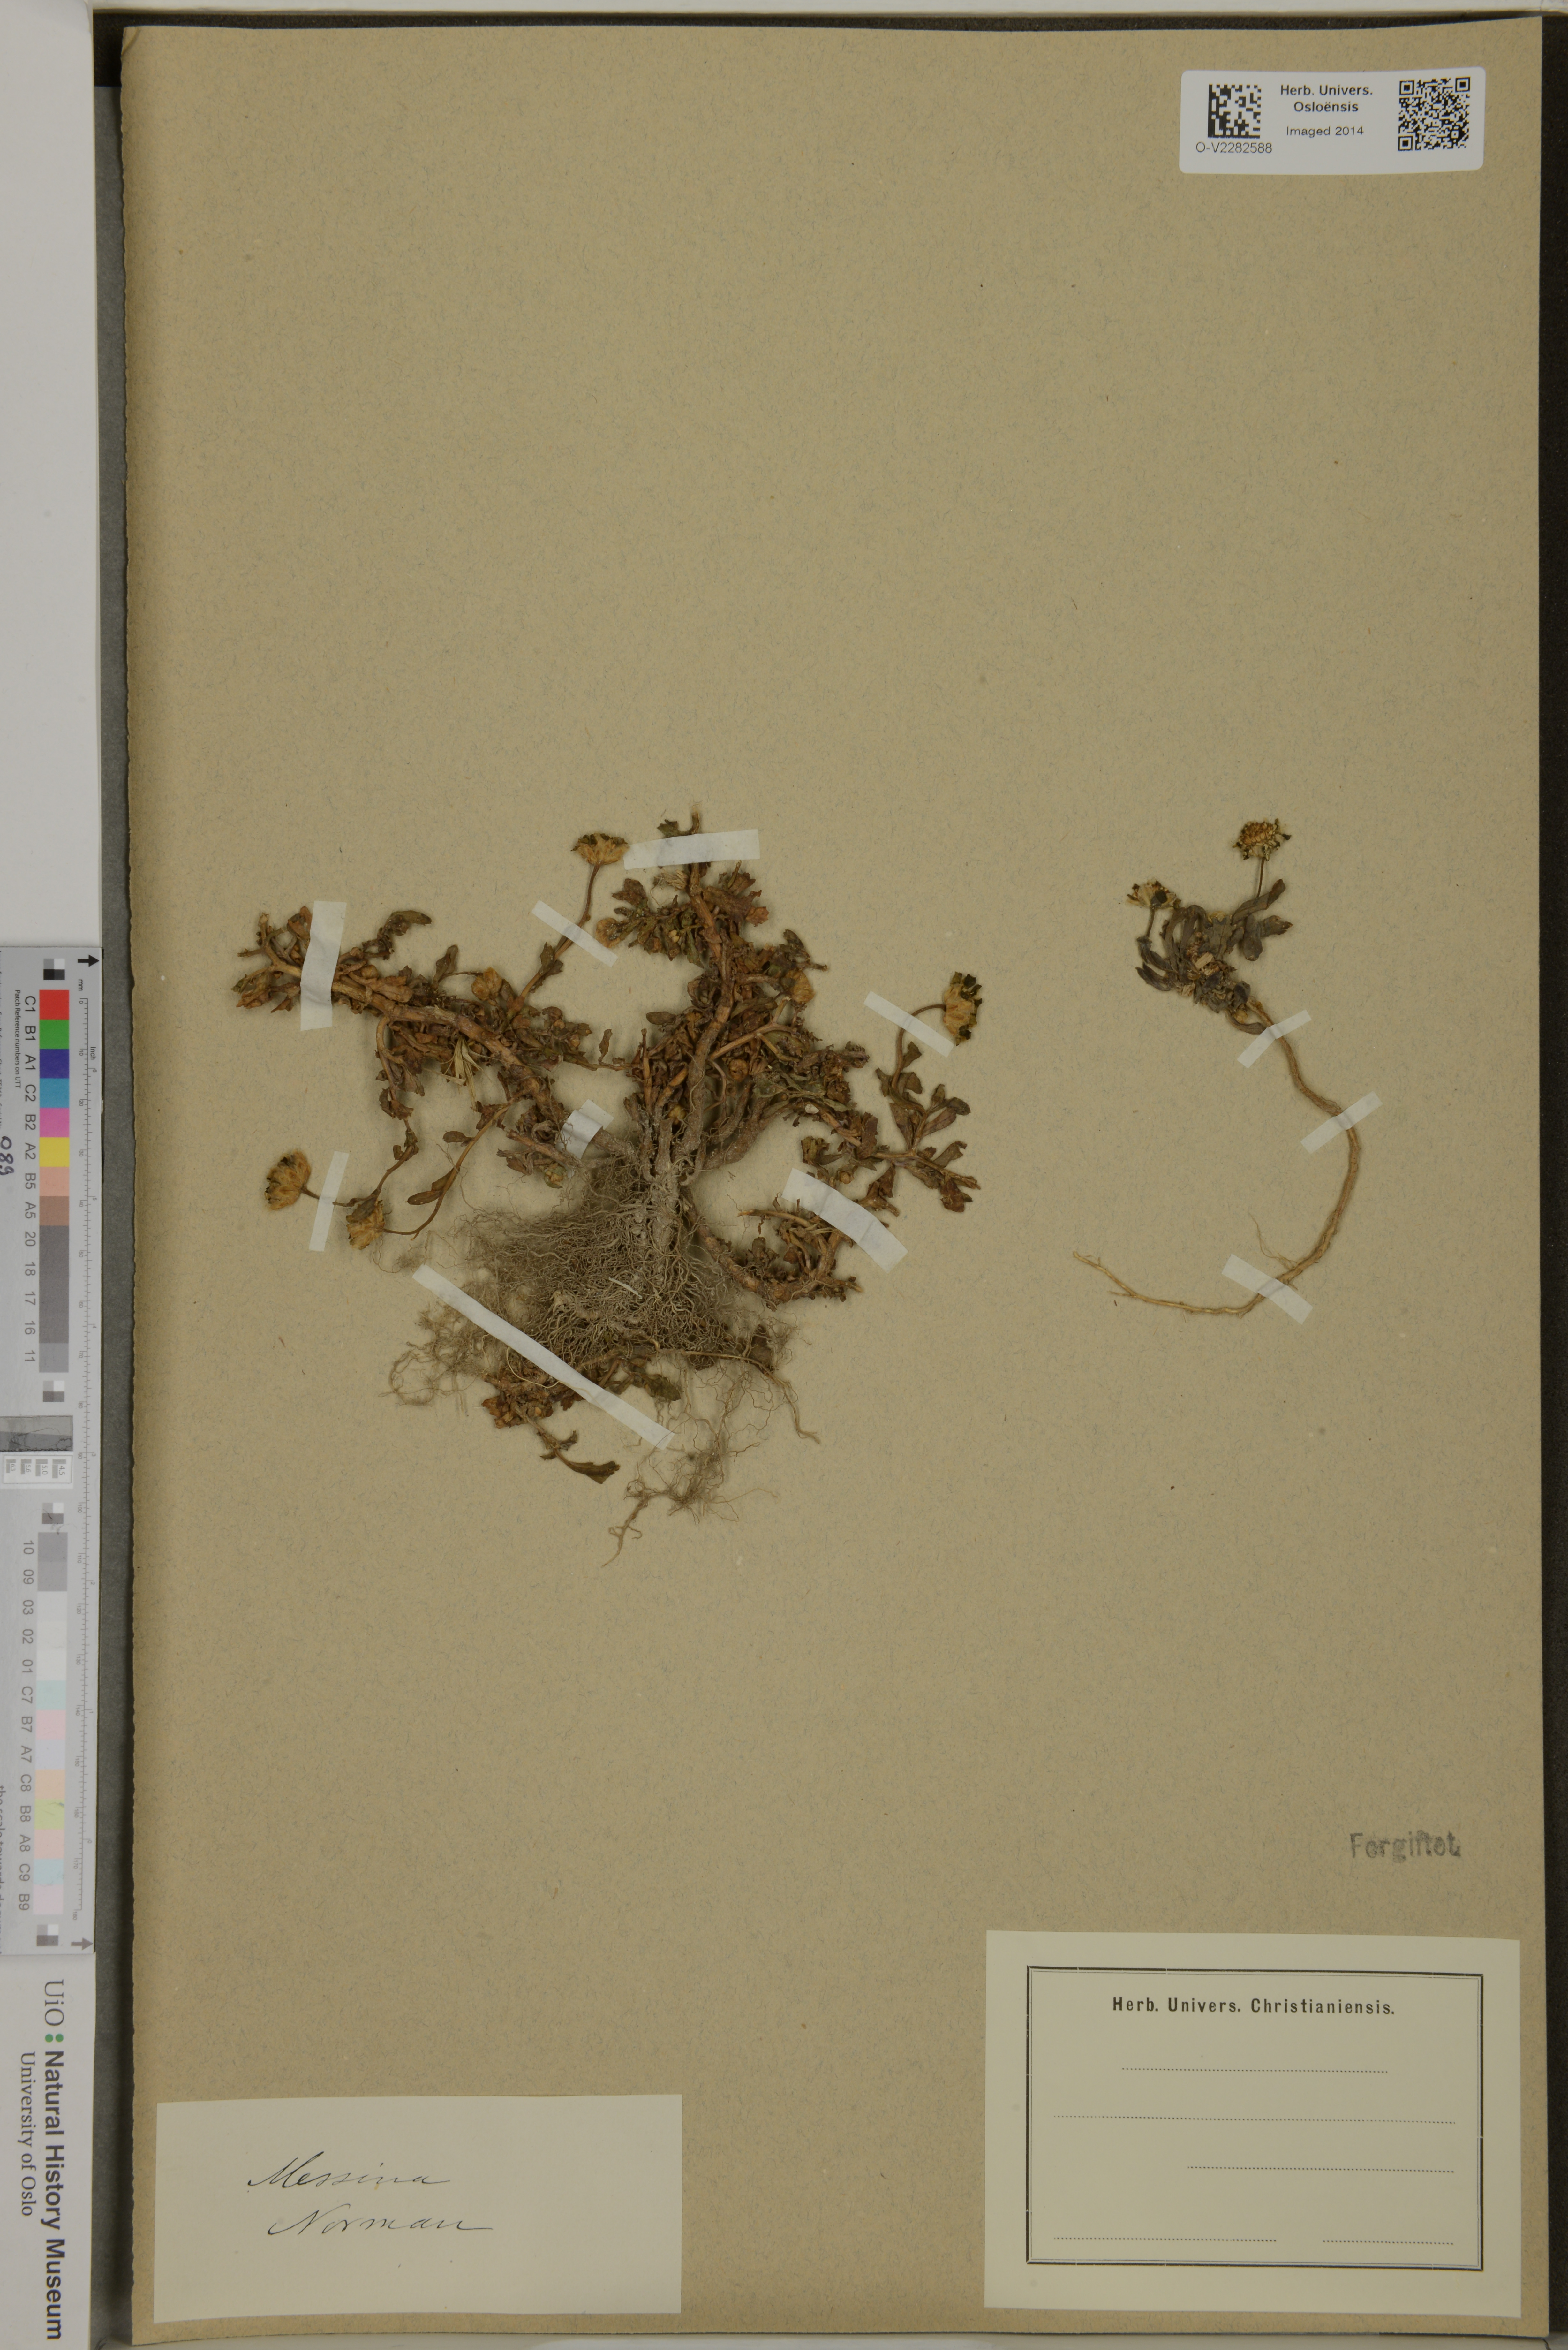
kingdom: Plantae
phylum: Tracheophyta
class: Magnoliopsida
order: Asterales
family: Asteraceae
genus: Senecio
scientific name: Senecio
